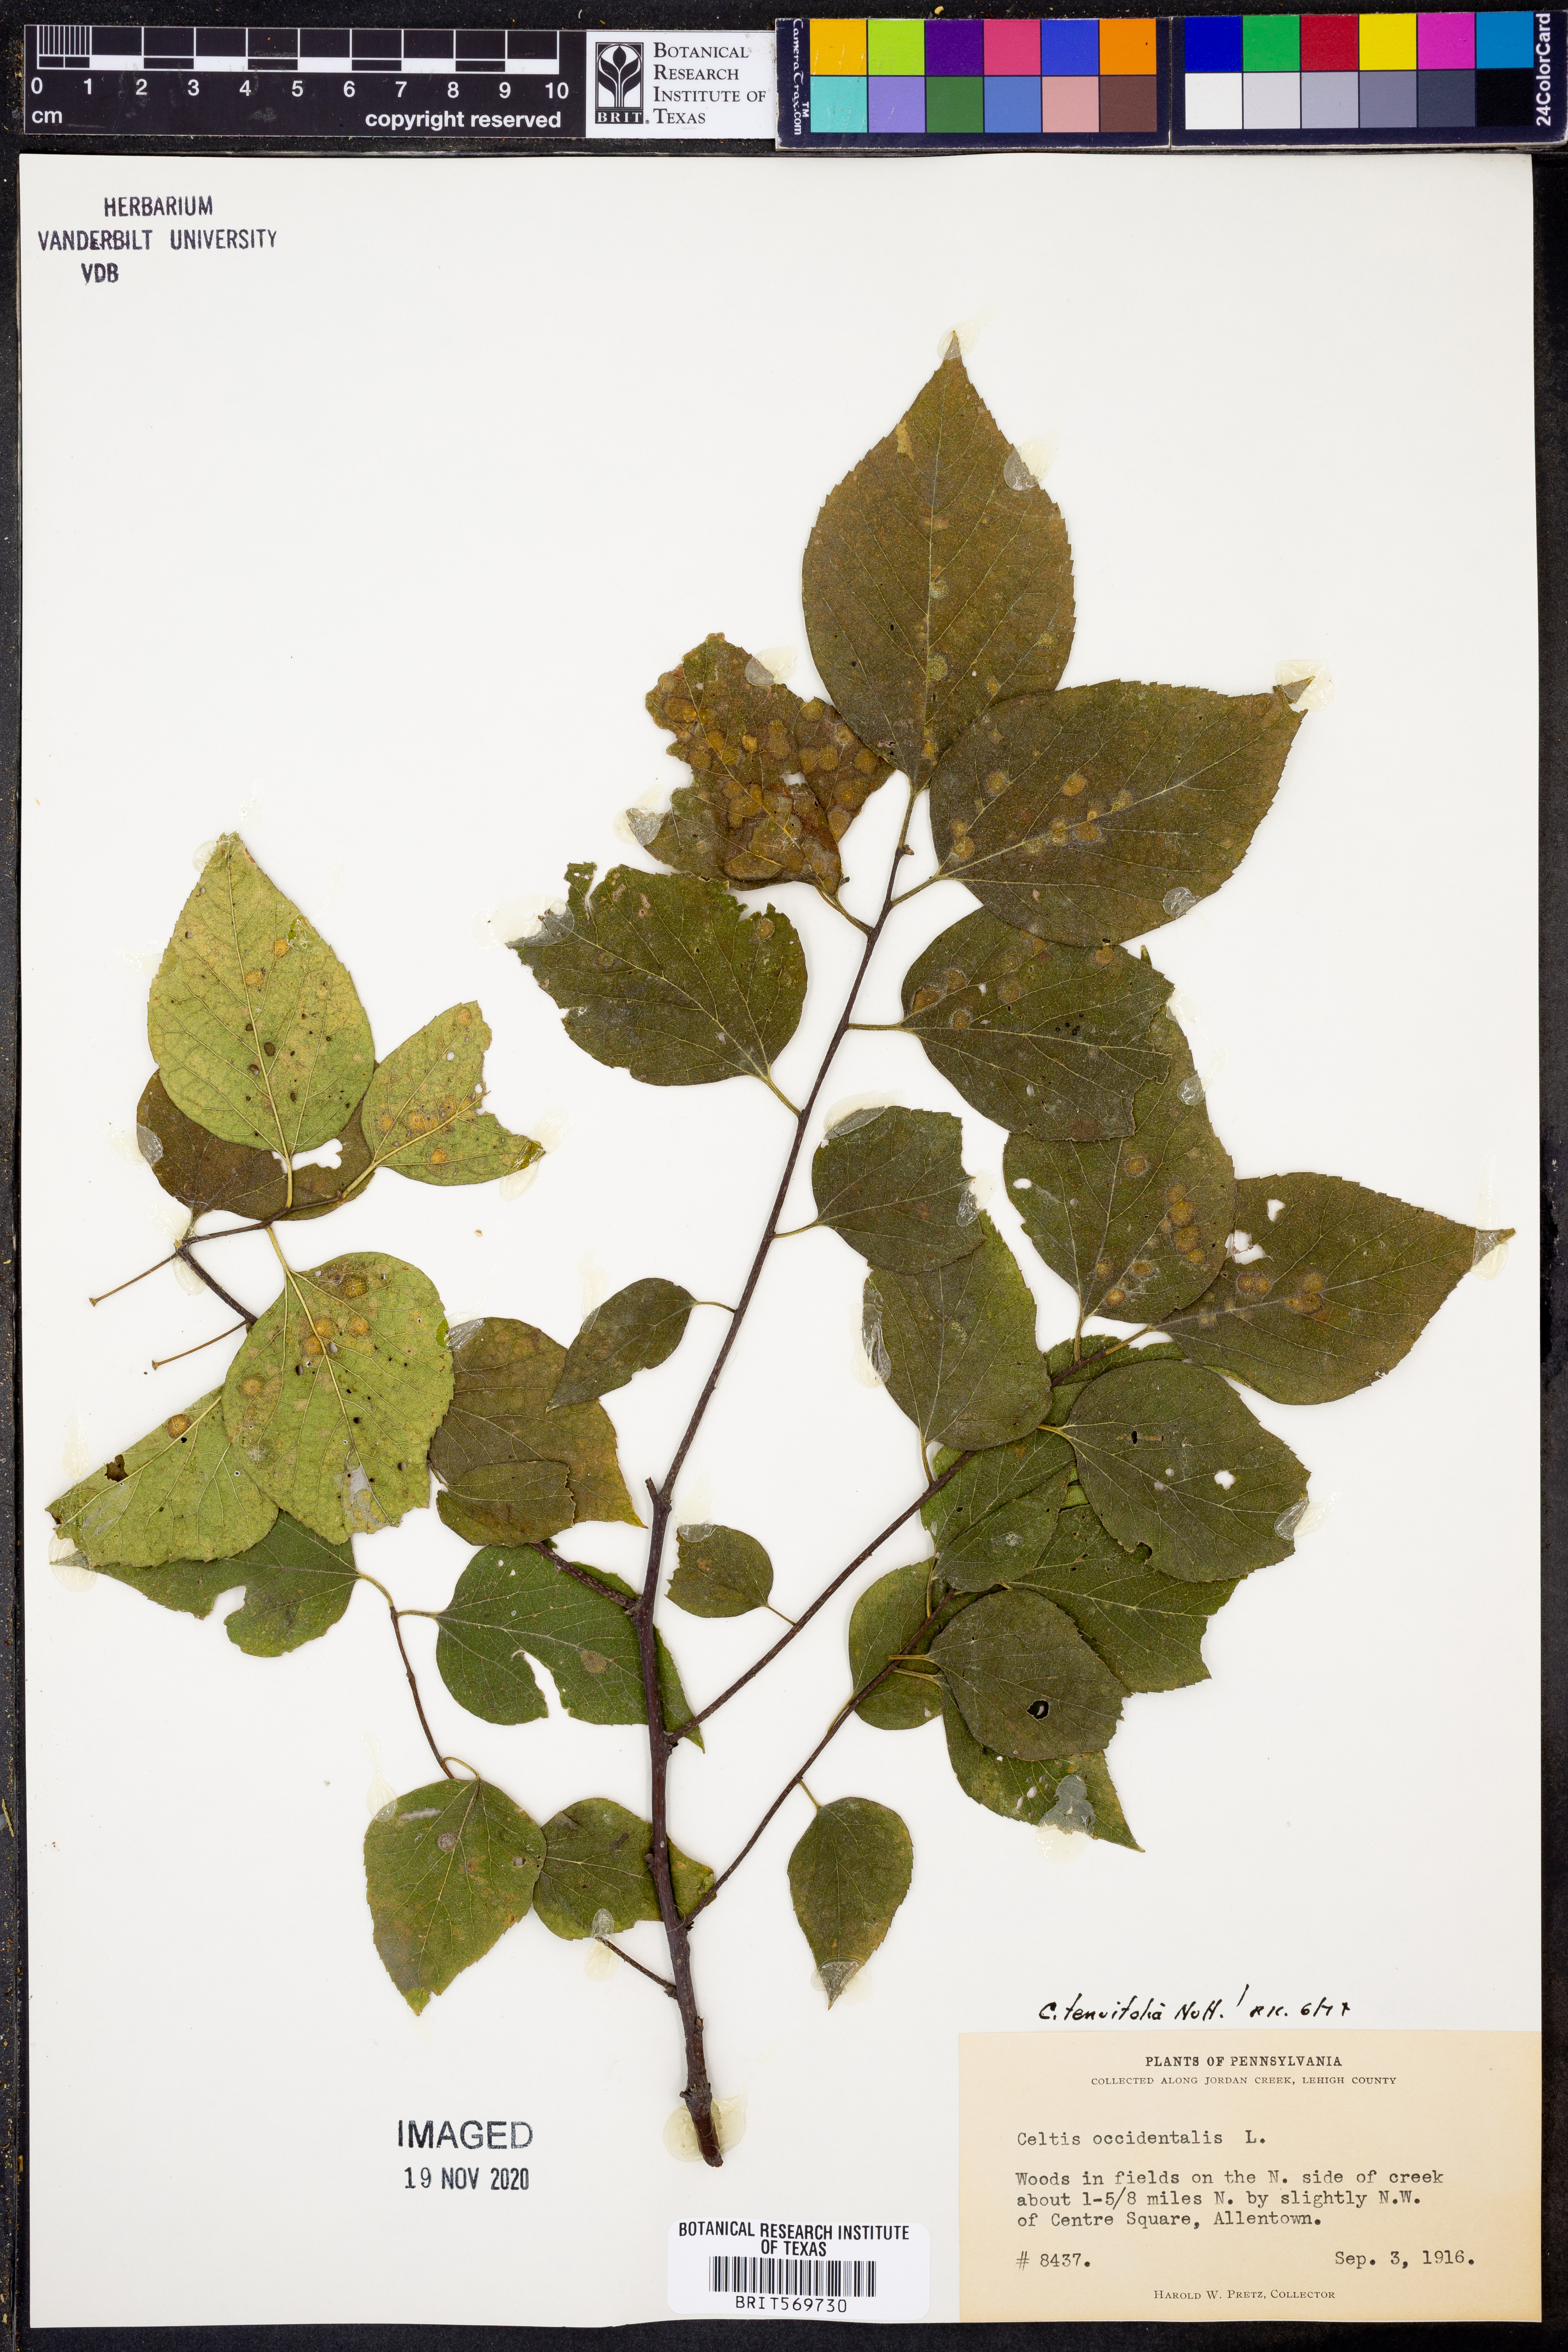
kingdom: Plantae
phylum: Tracheophyta
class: Magnoliopsida
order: Rosales
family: Cannabaceae
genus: Celtis
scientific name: Celtis tenuifolia
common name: Georgia hackberry
